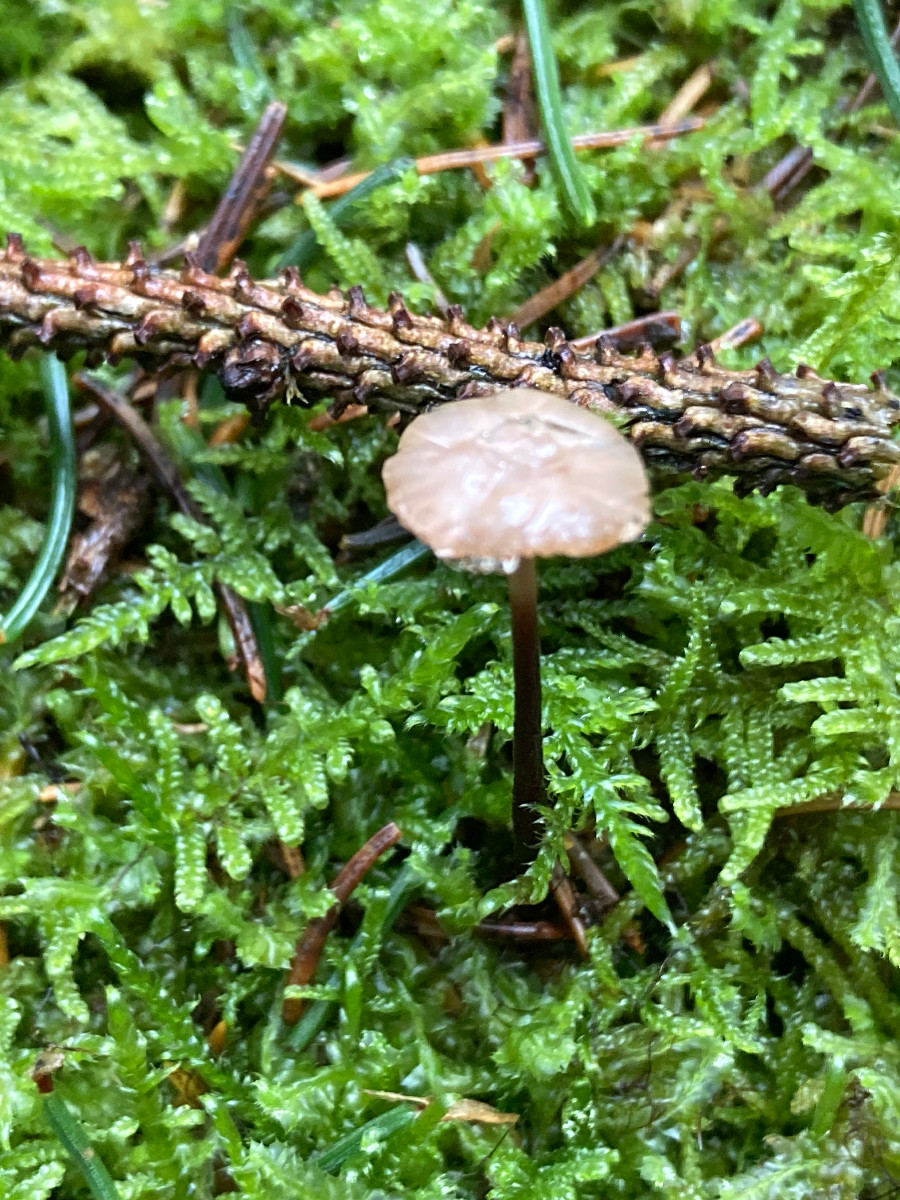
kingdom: Fungi
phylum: Basidiomycota
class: Agaricomycetes
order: Agaricales
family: Omphalotaceae
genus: Paragymnopus
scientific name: Paragymnopus perforans
